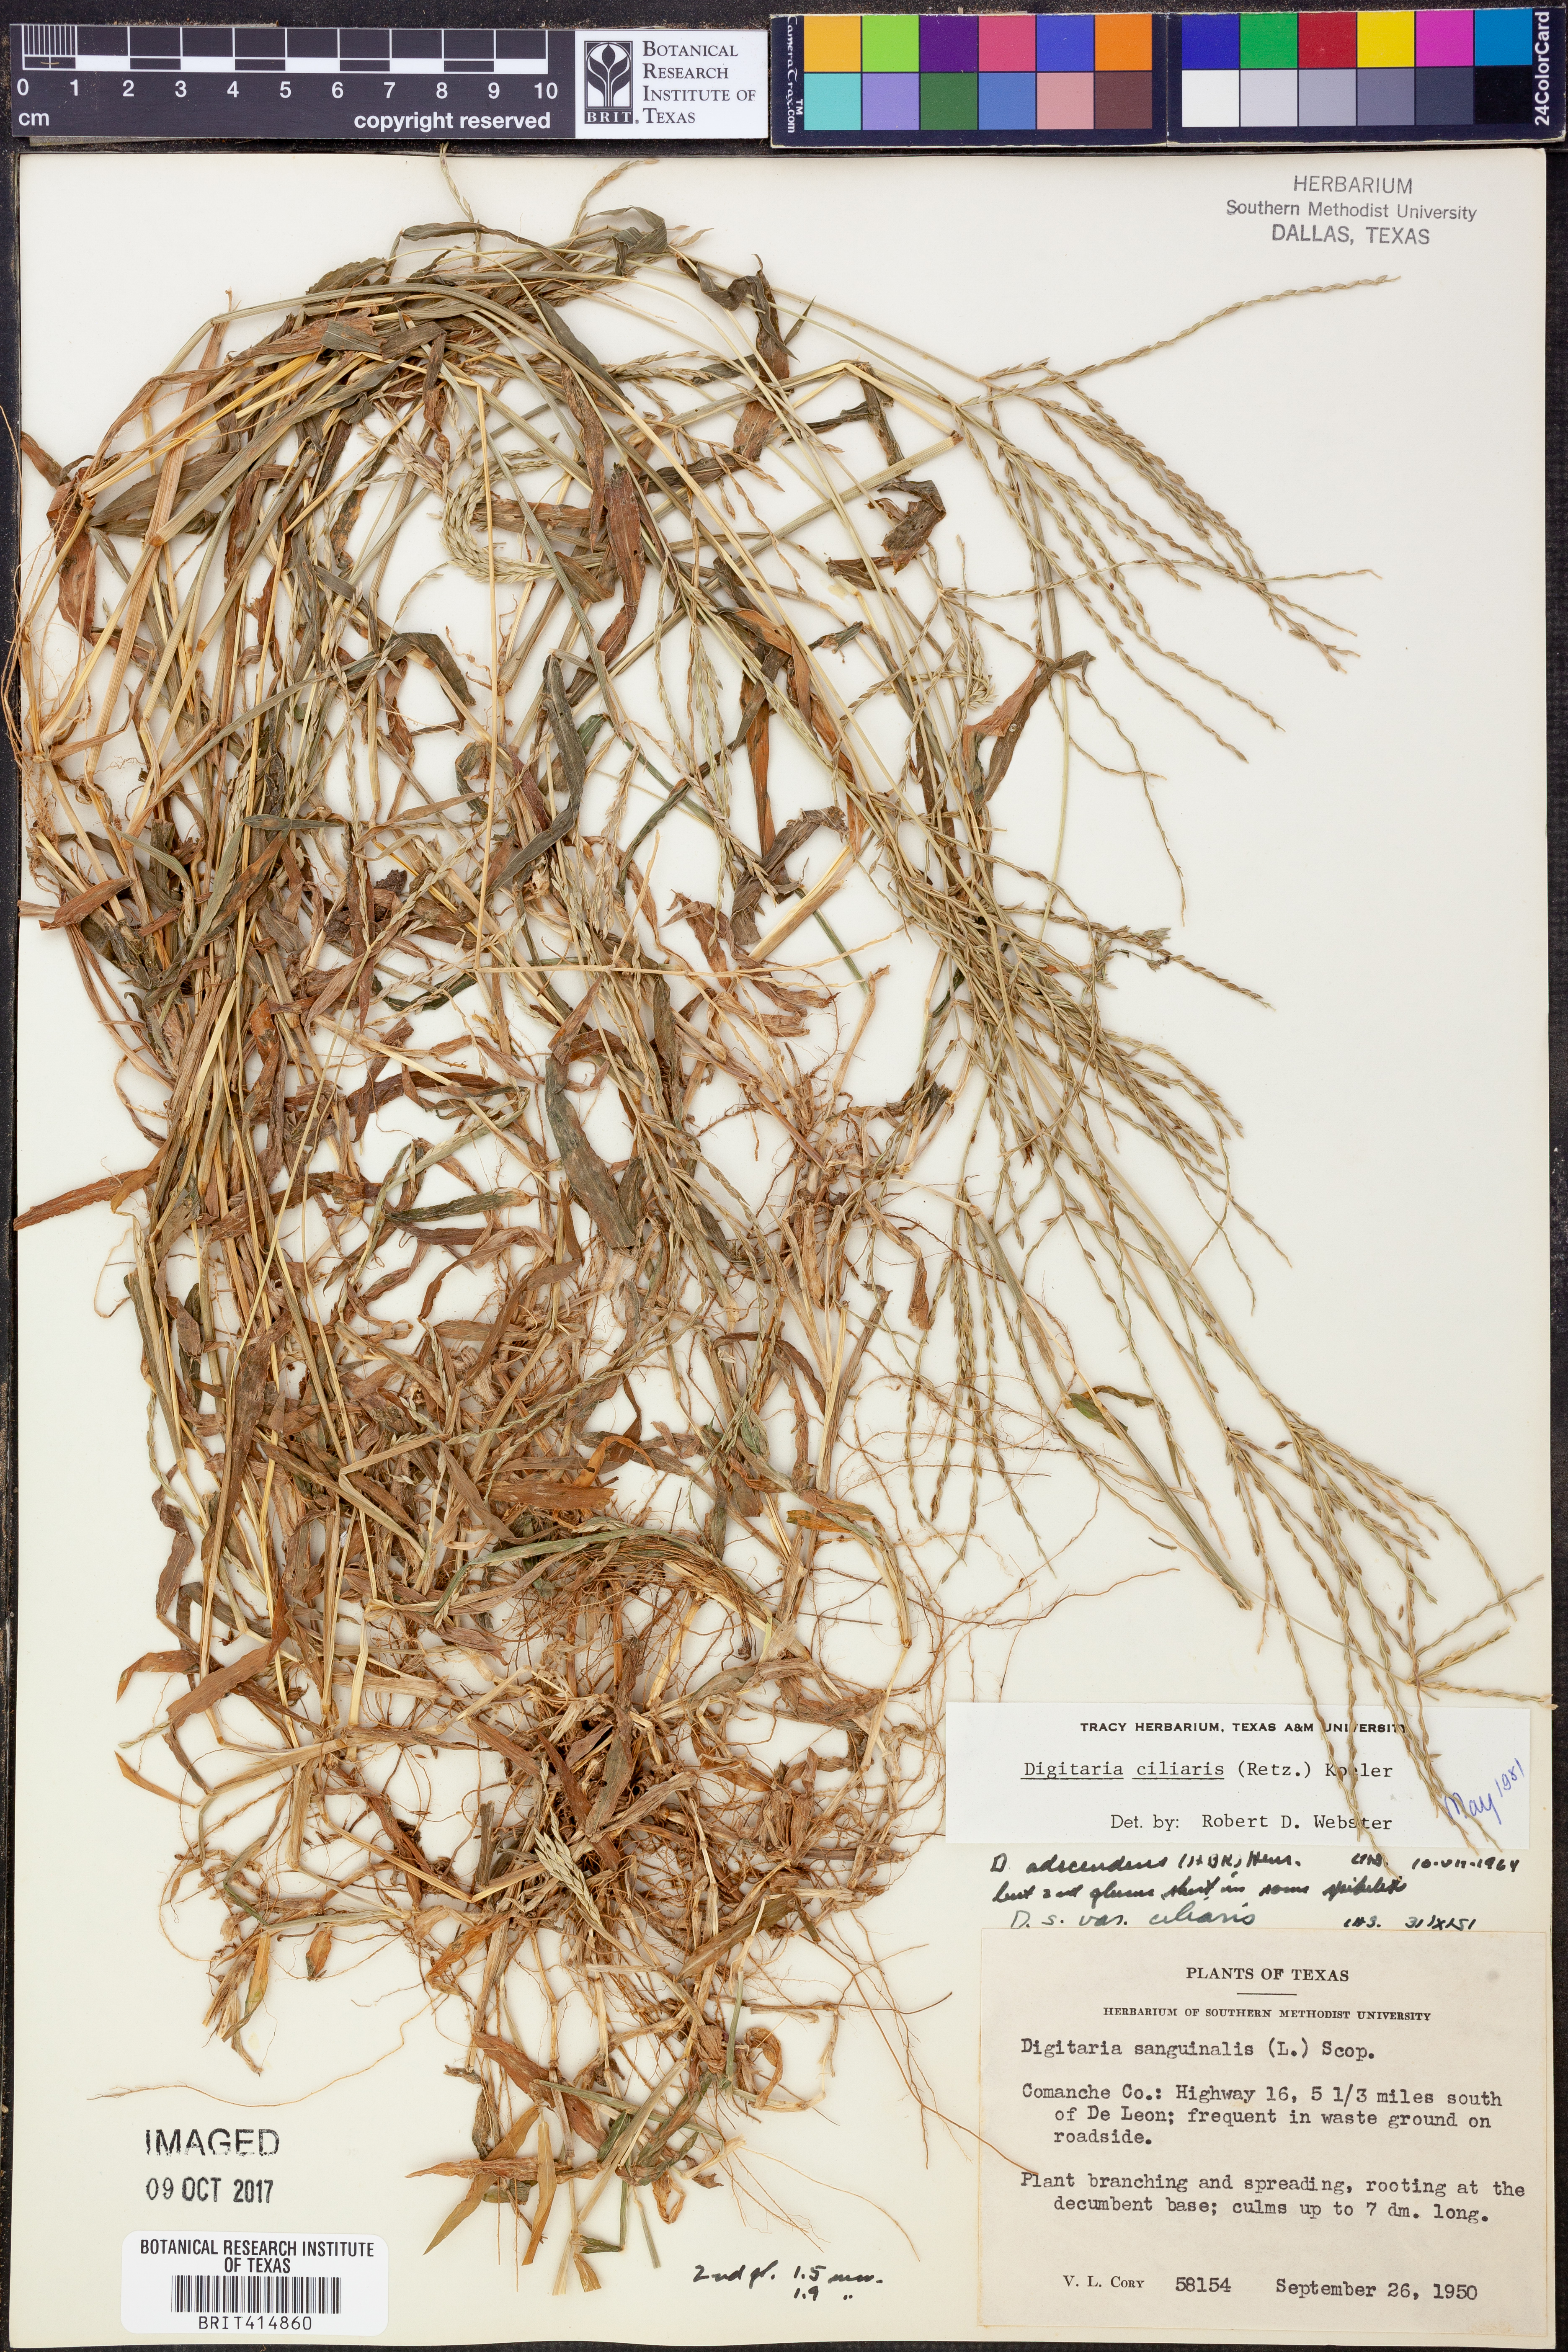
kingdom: Plantae
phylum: Tracheophyta
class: Liliopsida
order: Poales
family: Poaceae
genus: Digitaria
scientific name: Digitaria ciliaris
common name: Tropical finger-grass
